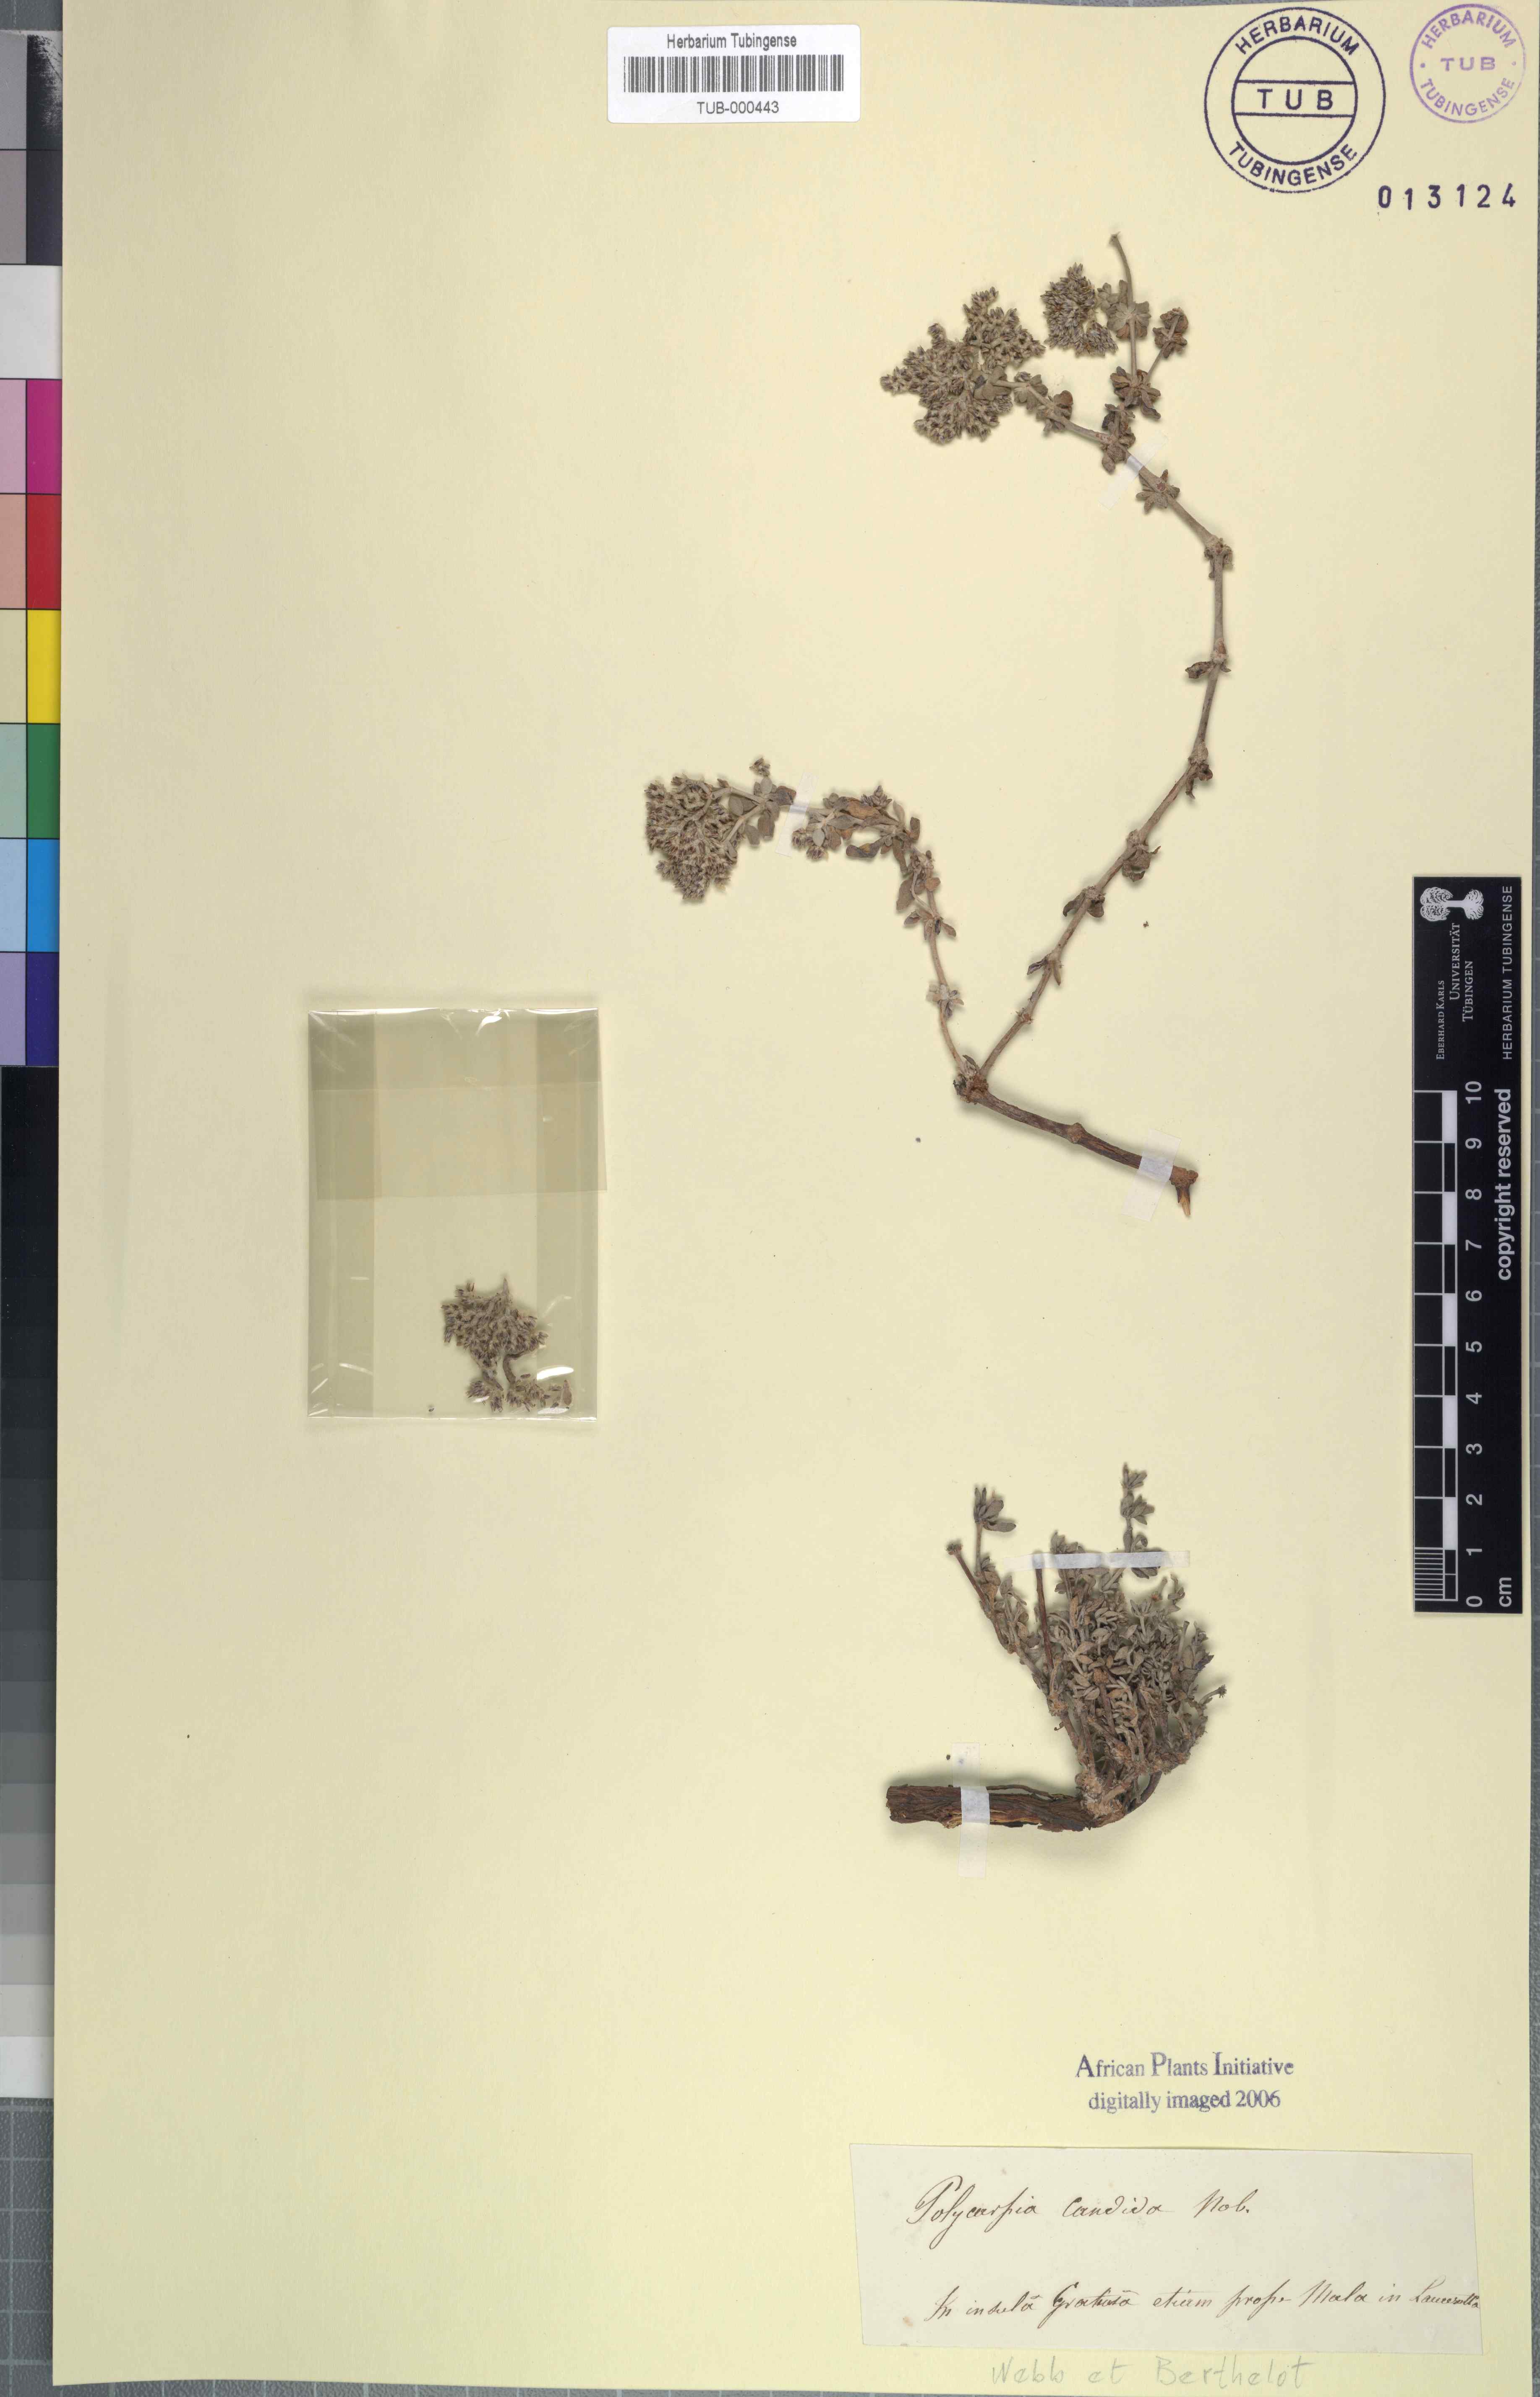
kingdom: Plantae
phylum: Tracheophyta
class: Magnoliopsida
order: Caryophyllales
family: Caryophyllaceae
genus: Polycarpaea
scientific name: Polycarpaea corymbosa
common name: Oldman's cap
